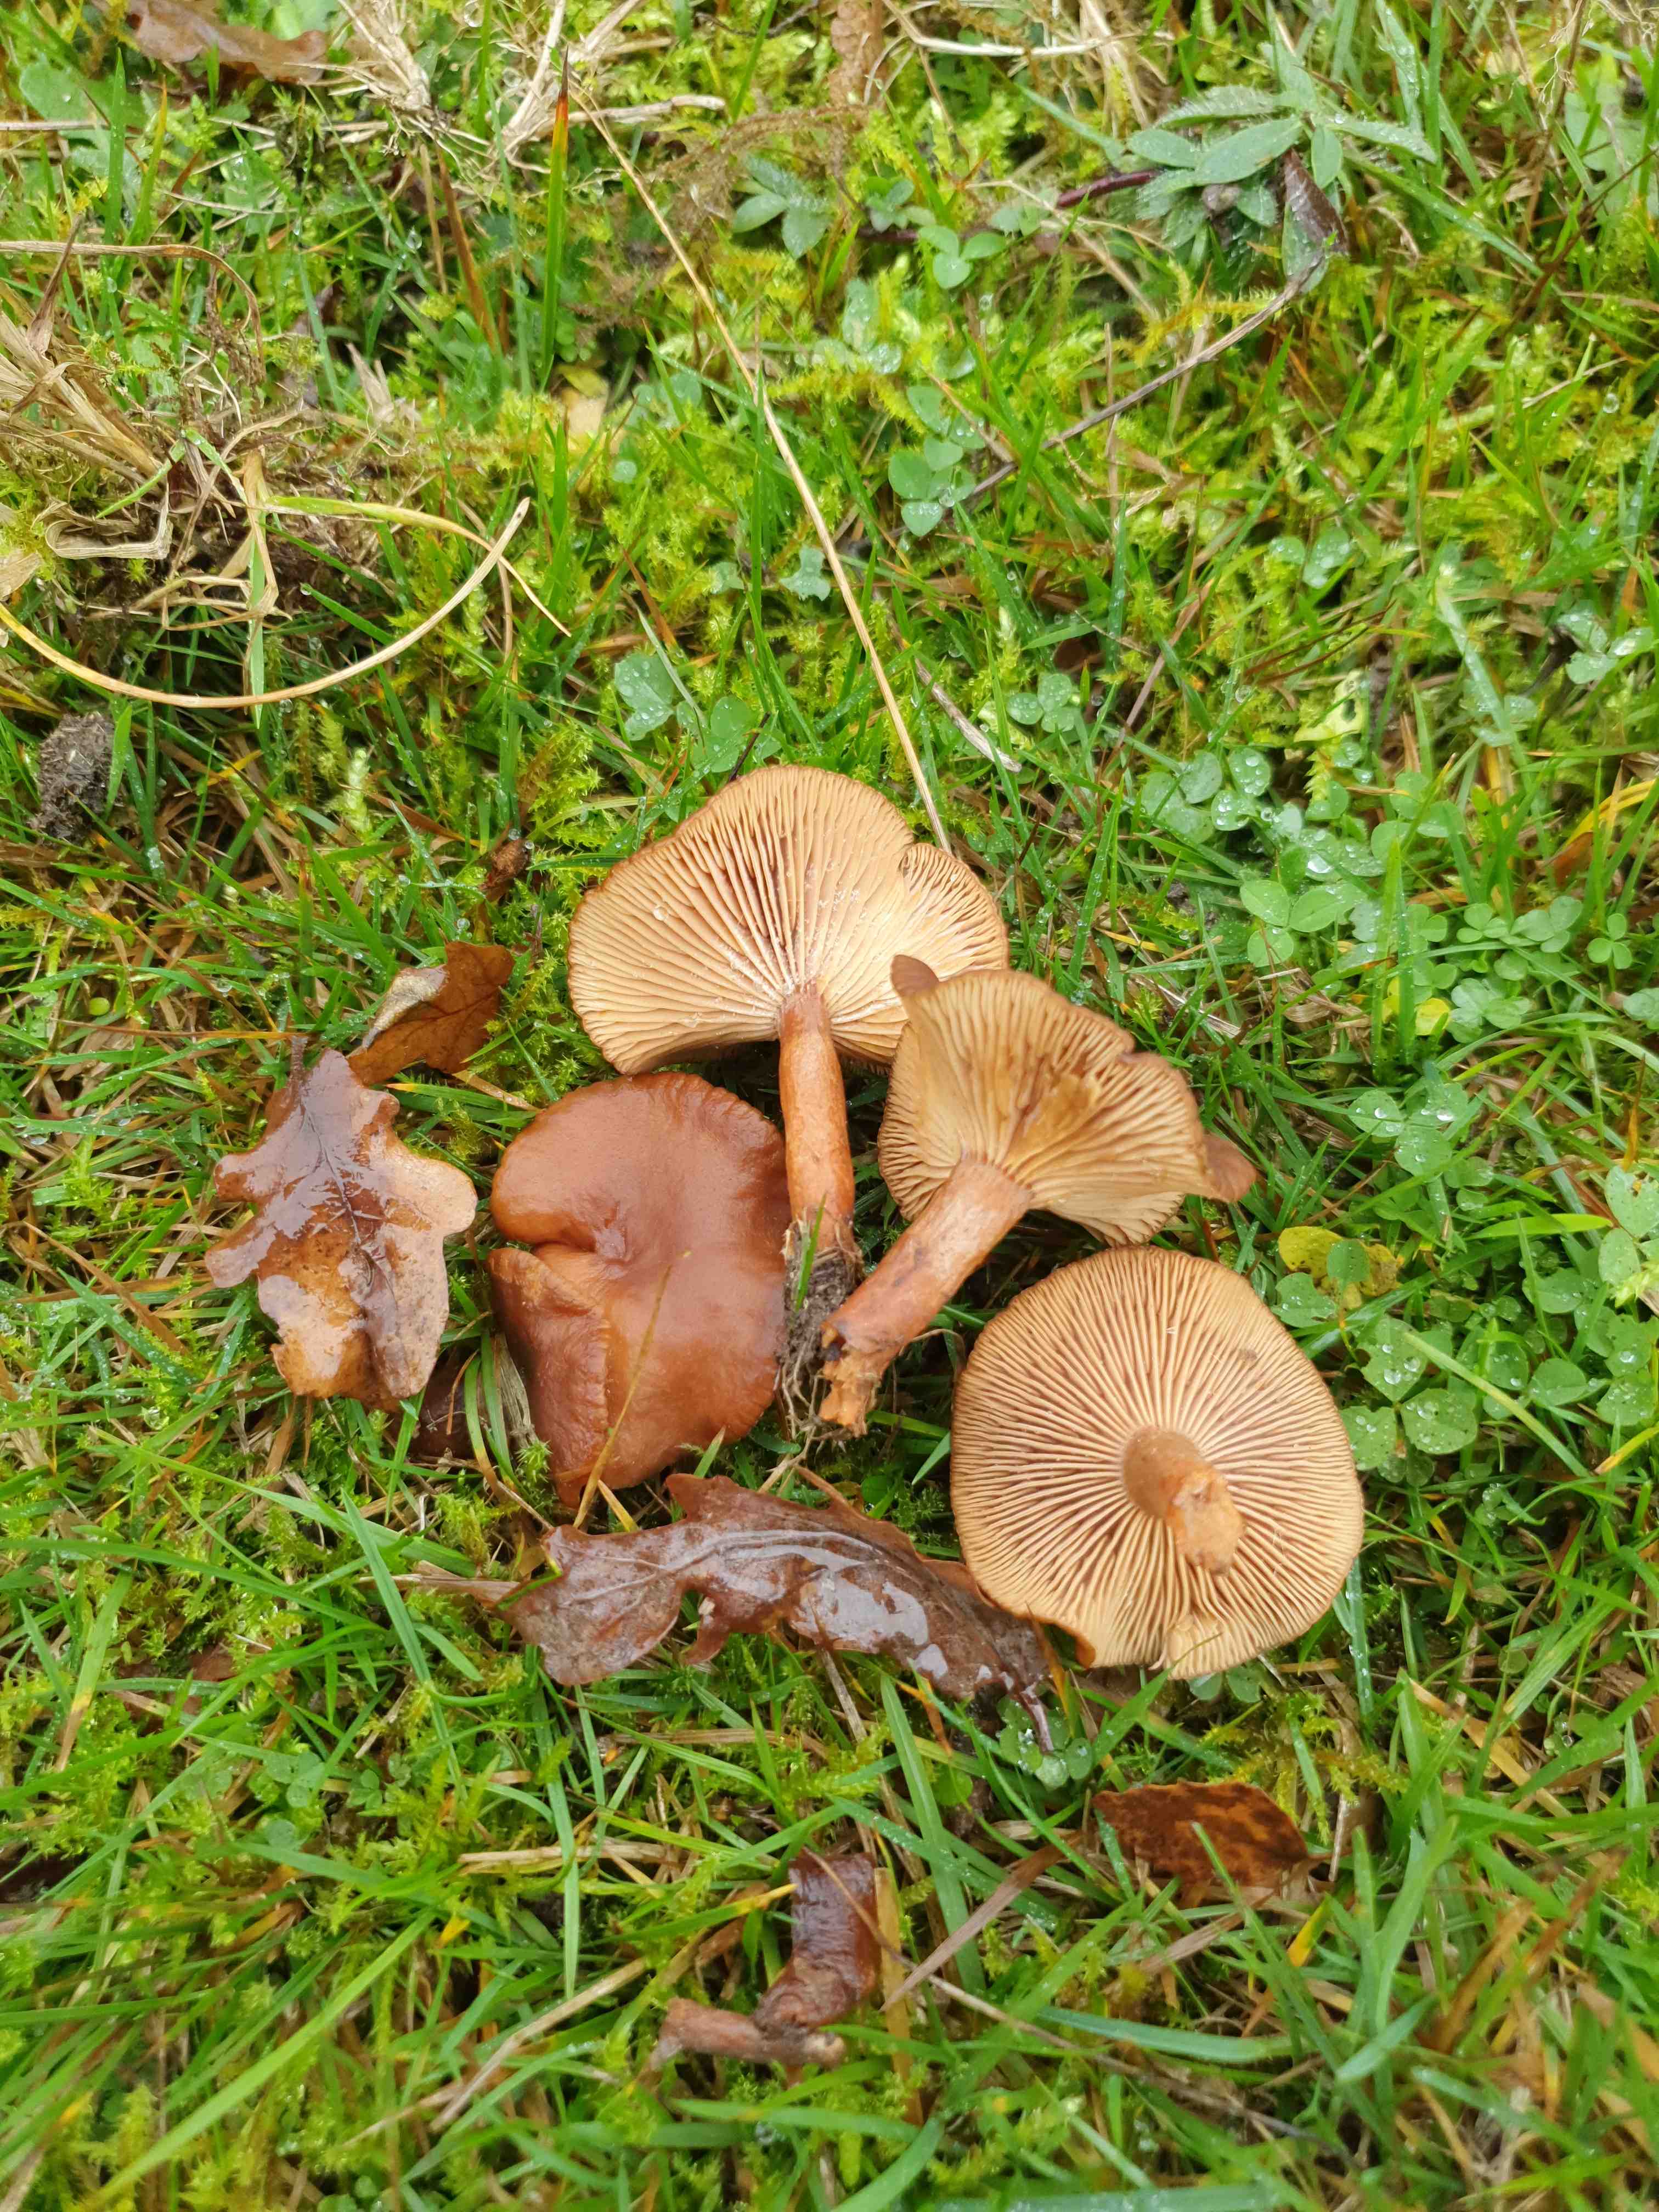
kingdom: Fungi
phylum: Basidiomycota
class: Agaricomycetes
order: Russulales
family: Russulaceae
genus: Lactarius
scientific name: Lactarius serifluus
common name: tæge-mælkehat
